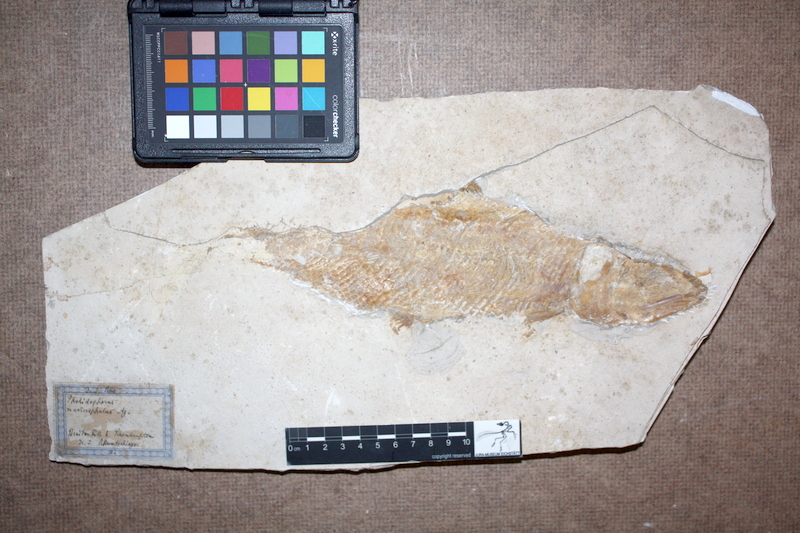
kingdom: Animalia
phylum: Chordata
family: Ankylophoridae
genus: Siemensichthys
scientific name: Siemensichthys macrocephalus
